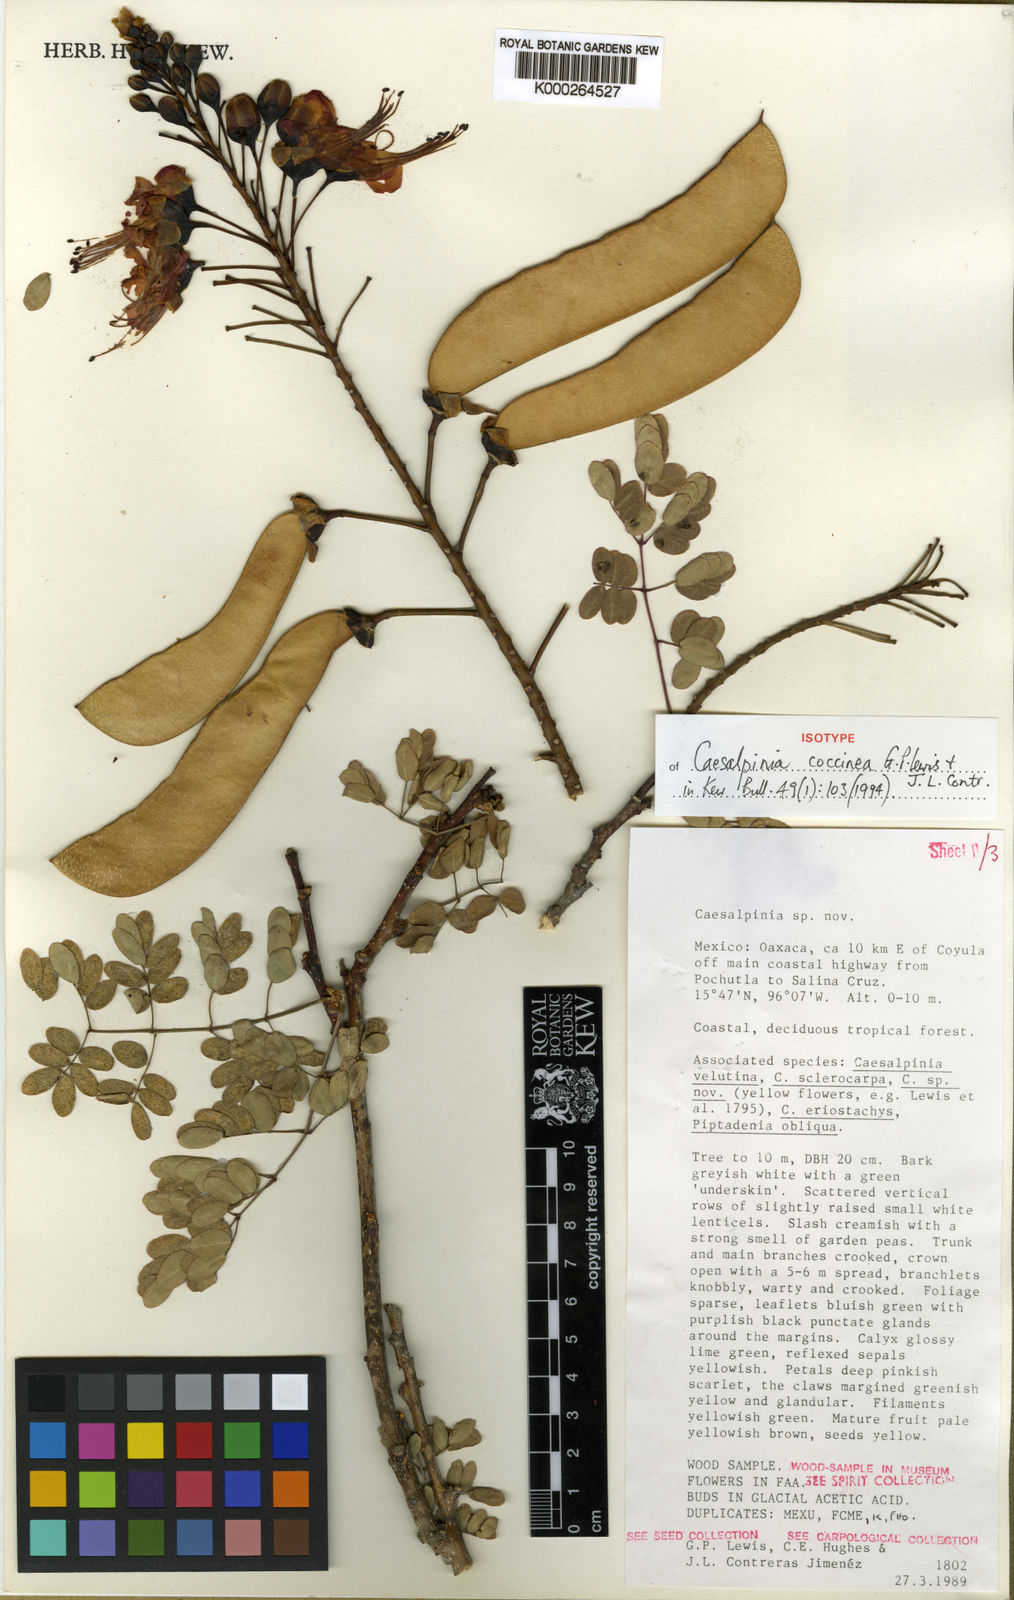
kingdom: Plantae
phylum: Tracheophyta
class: Magnoliopsida
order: Fabales
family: Fabaceae
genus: Erythrostemon
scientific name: Erythrostemon coccineus
